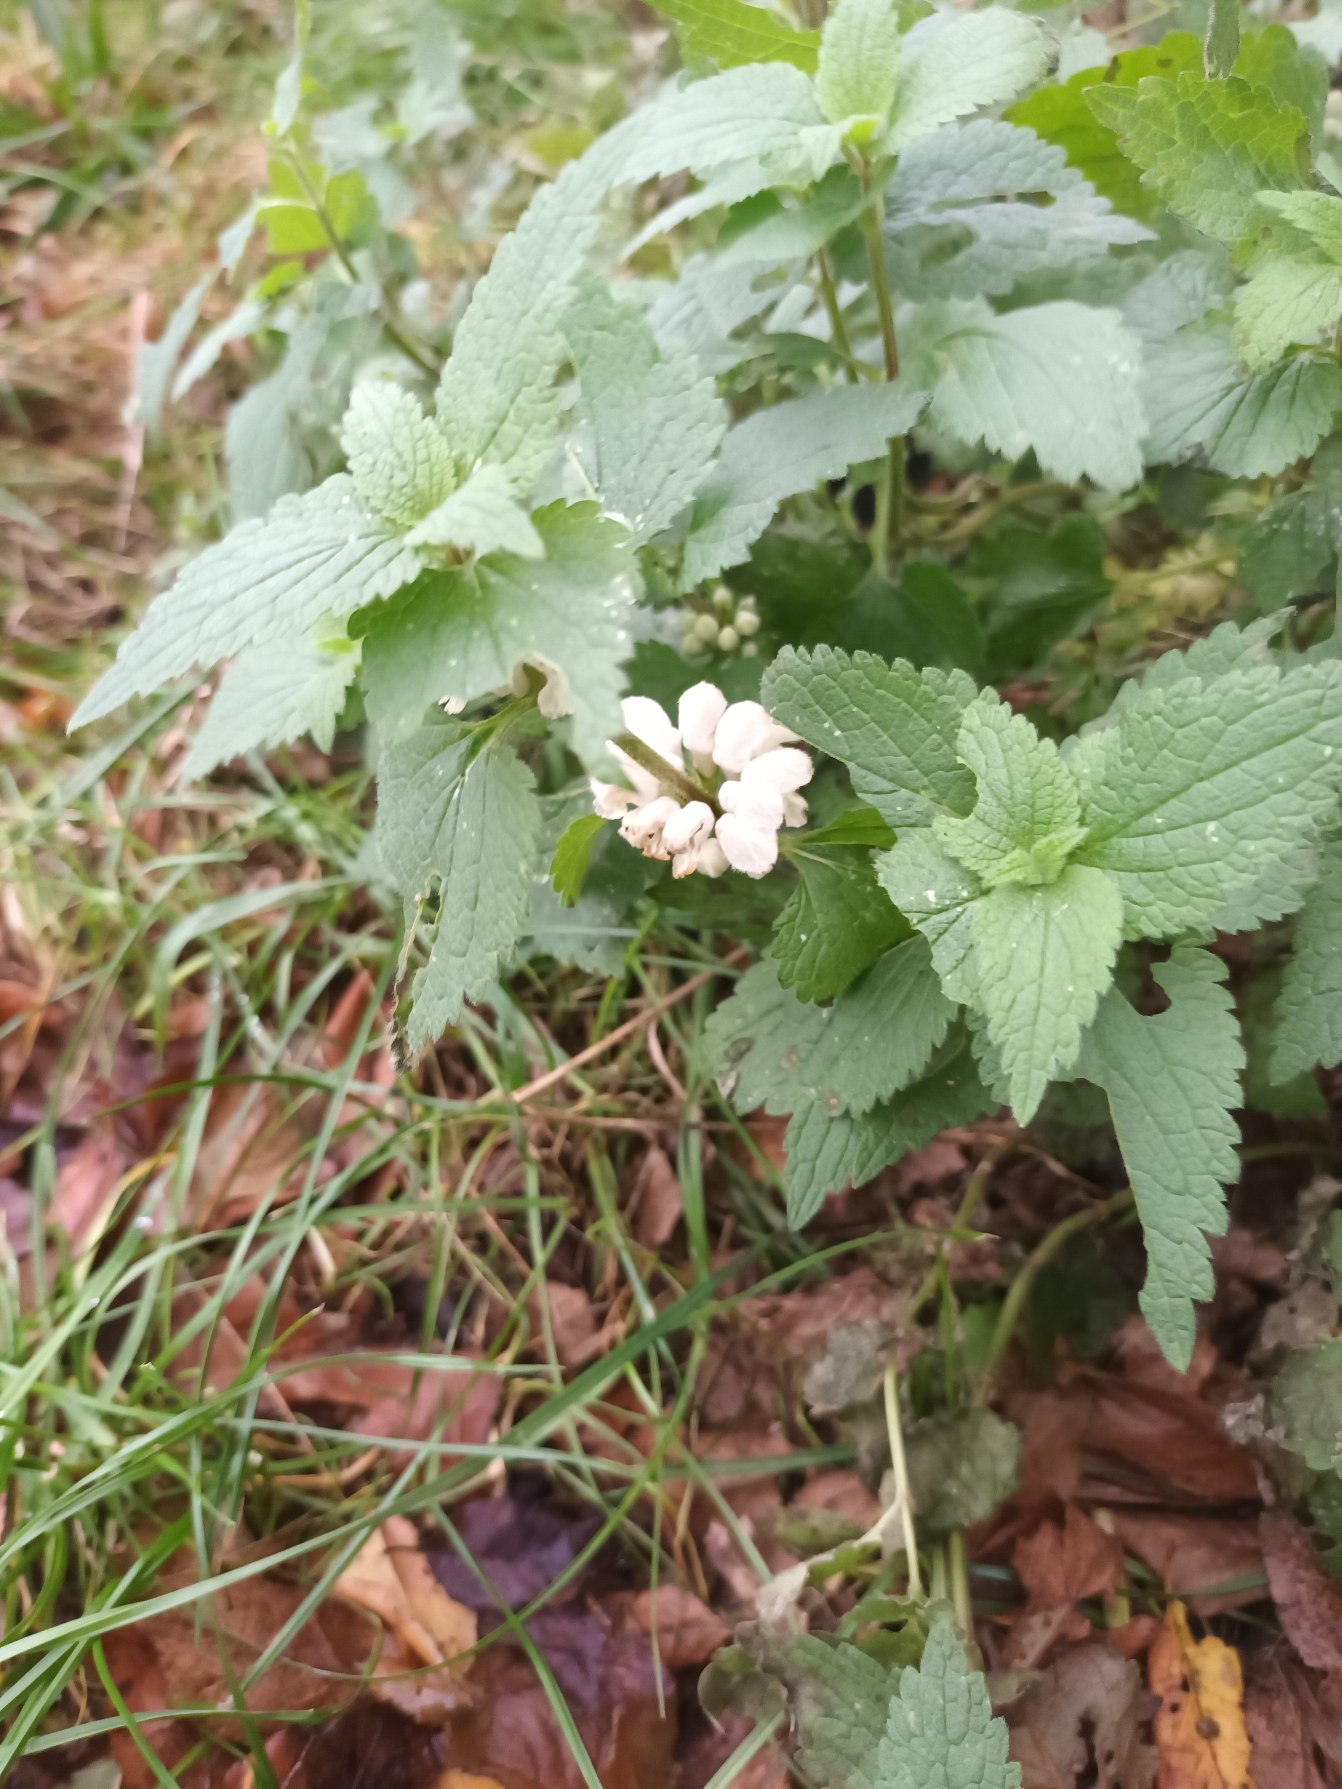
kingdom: Plantae
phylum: Tracheophyta
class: Magnoliopsida
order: Lamiales
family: Lamiaceae
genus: Lamium
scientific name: Lamium album
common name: Døvnælde
